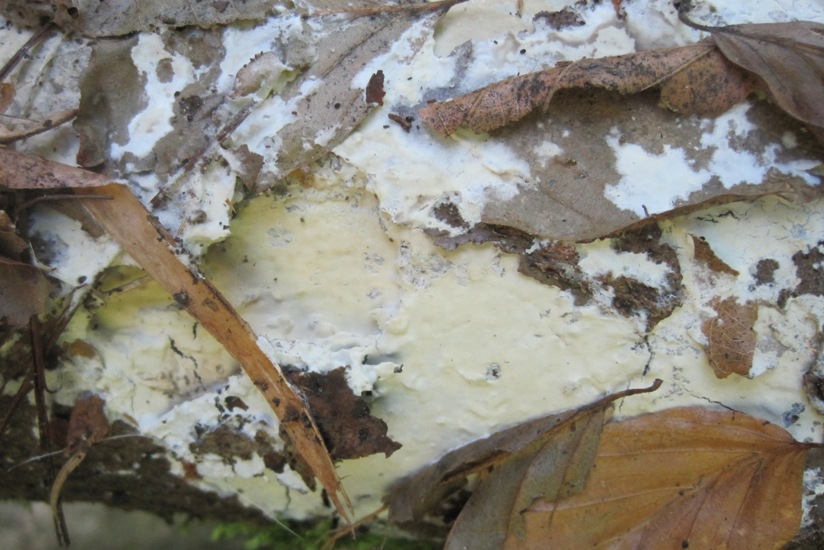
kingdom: Fungi
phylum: Basidiomycota
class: Agaricomycetes
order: Polyporales
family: Phanerochaetaceae
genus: Phanerochaete
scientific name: Phanerochaete sordida
